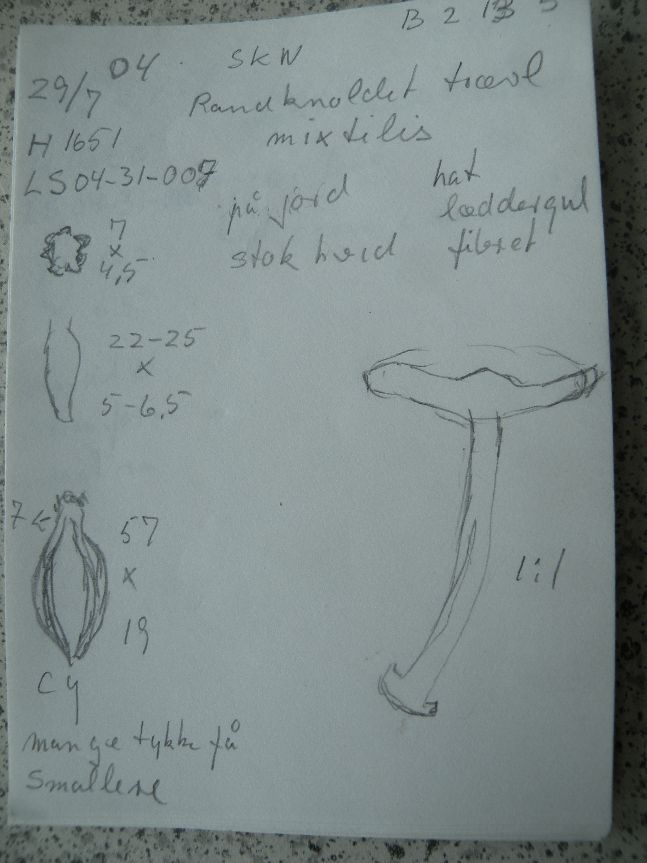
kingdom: Fungi
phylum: Basidiomycota
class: Agaricomycetes
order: Agaricales
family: Inocybaceae
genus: Inocybe
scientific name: Inocybe mixtilis
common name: randknoldet trævlhat
